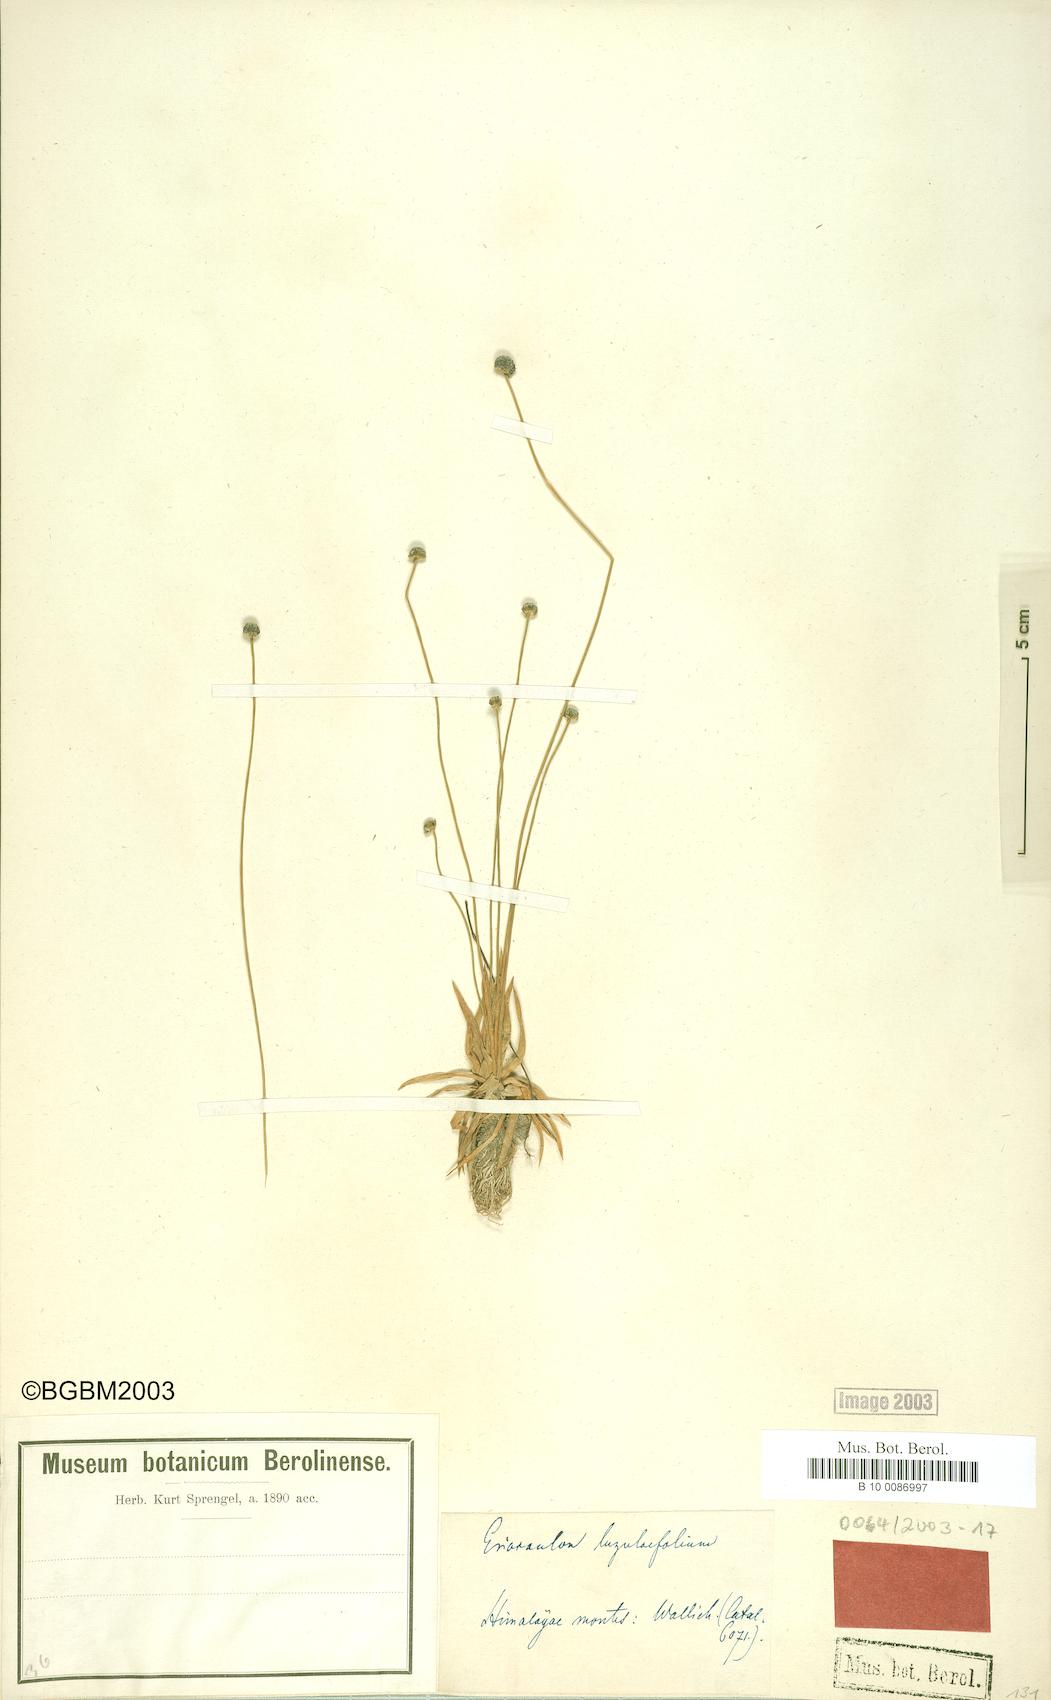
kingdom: Plantae
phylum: Tracheophyta
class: Liliopsida
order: Poales
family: Eriocaulaceae
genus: Eriocaulon
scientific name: Eriocaulon nepalense
